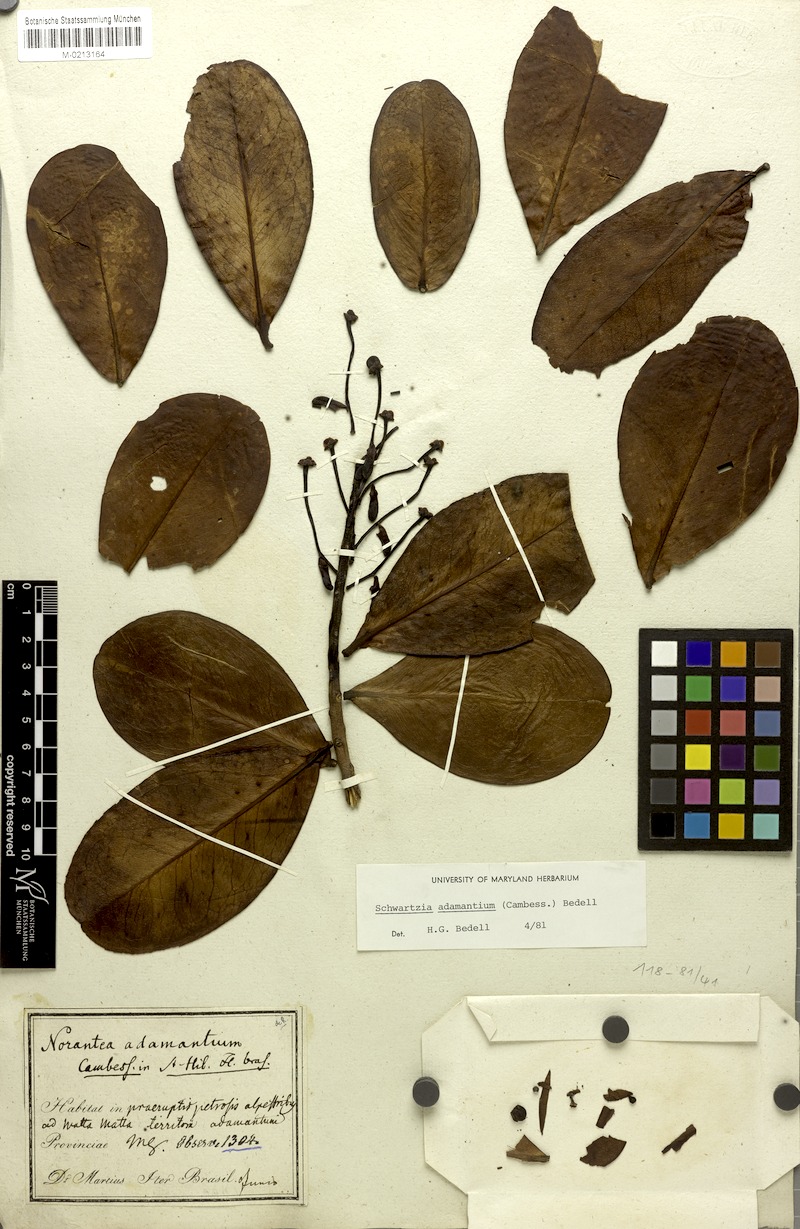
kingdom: Plantae
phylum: Tracheophyta
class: Magnoliopsida
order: Ericales
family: Marcgraviaceae
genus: Schwartzia
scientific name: Schwartzia adamantium
